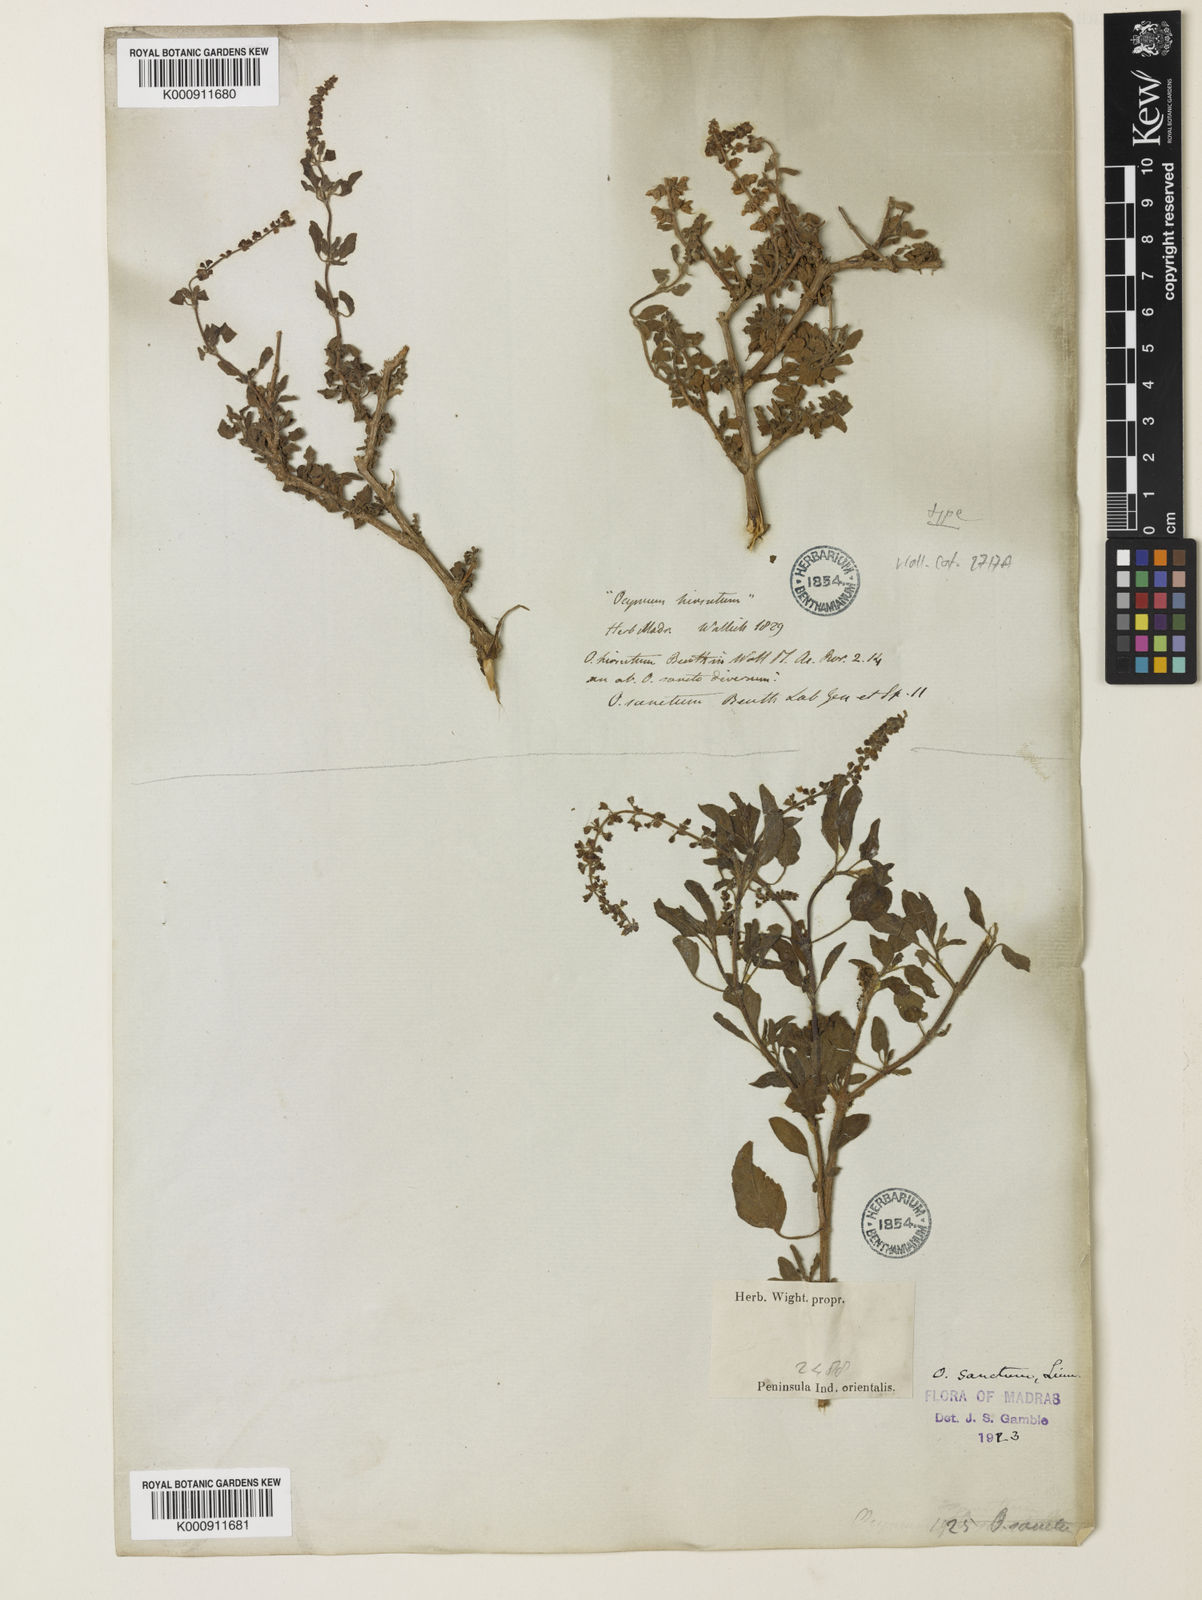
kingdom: Plantae
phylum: Tracheophyta
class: Magnoliopsida
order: Lamiales
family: Lamiaceae
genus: Ocimum
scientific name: Ocimum tenuiflorum
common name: Sacred basil
